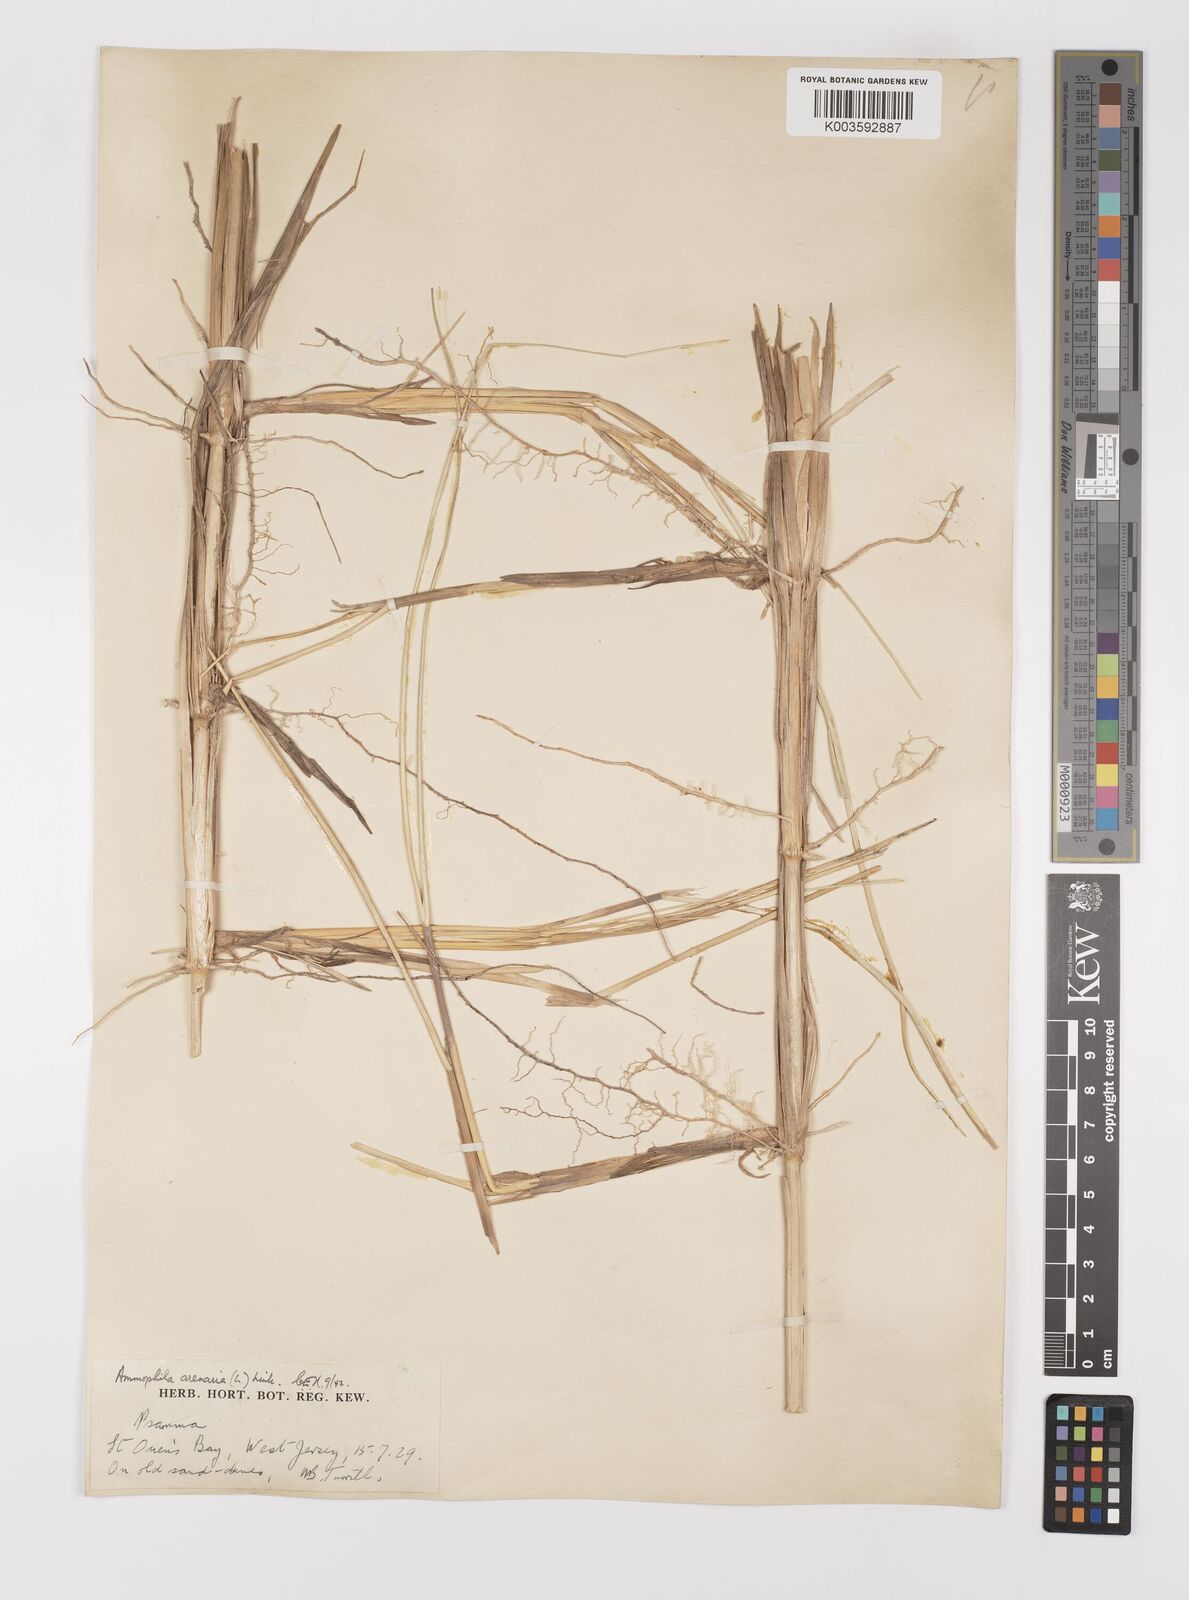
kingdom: Plantae
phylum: Tracheophyta
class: Liliopsida
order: Poales
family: Poaceae
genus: Calamagrostis
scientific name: Calamagrostis arenaria
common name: European beachgrass
